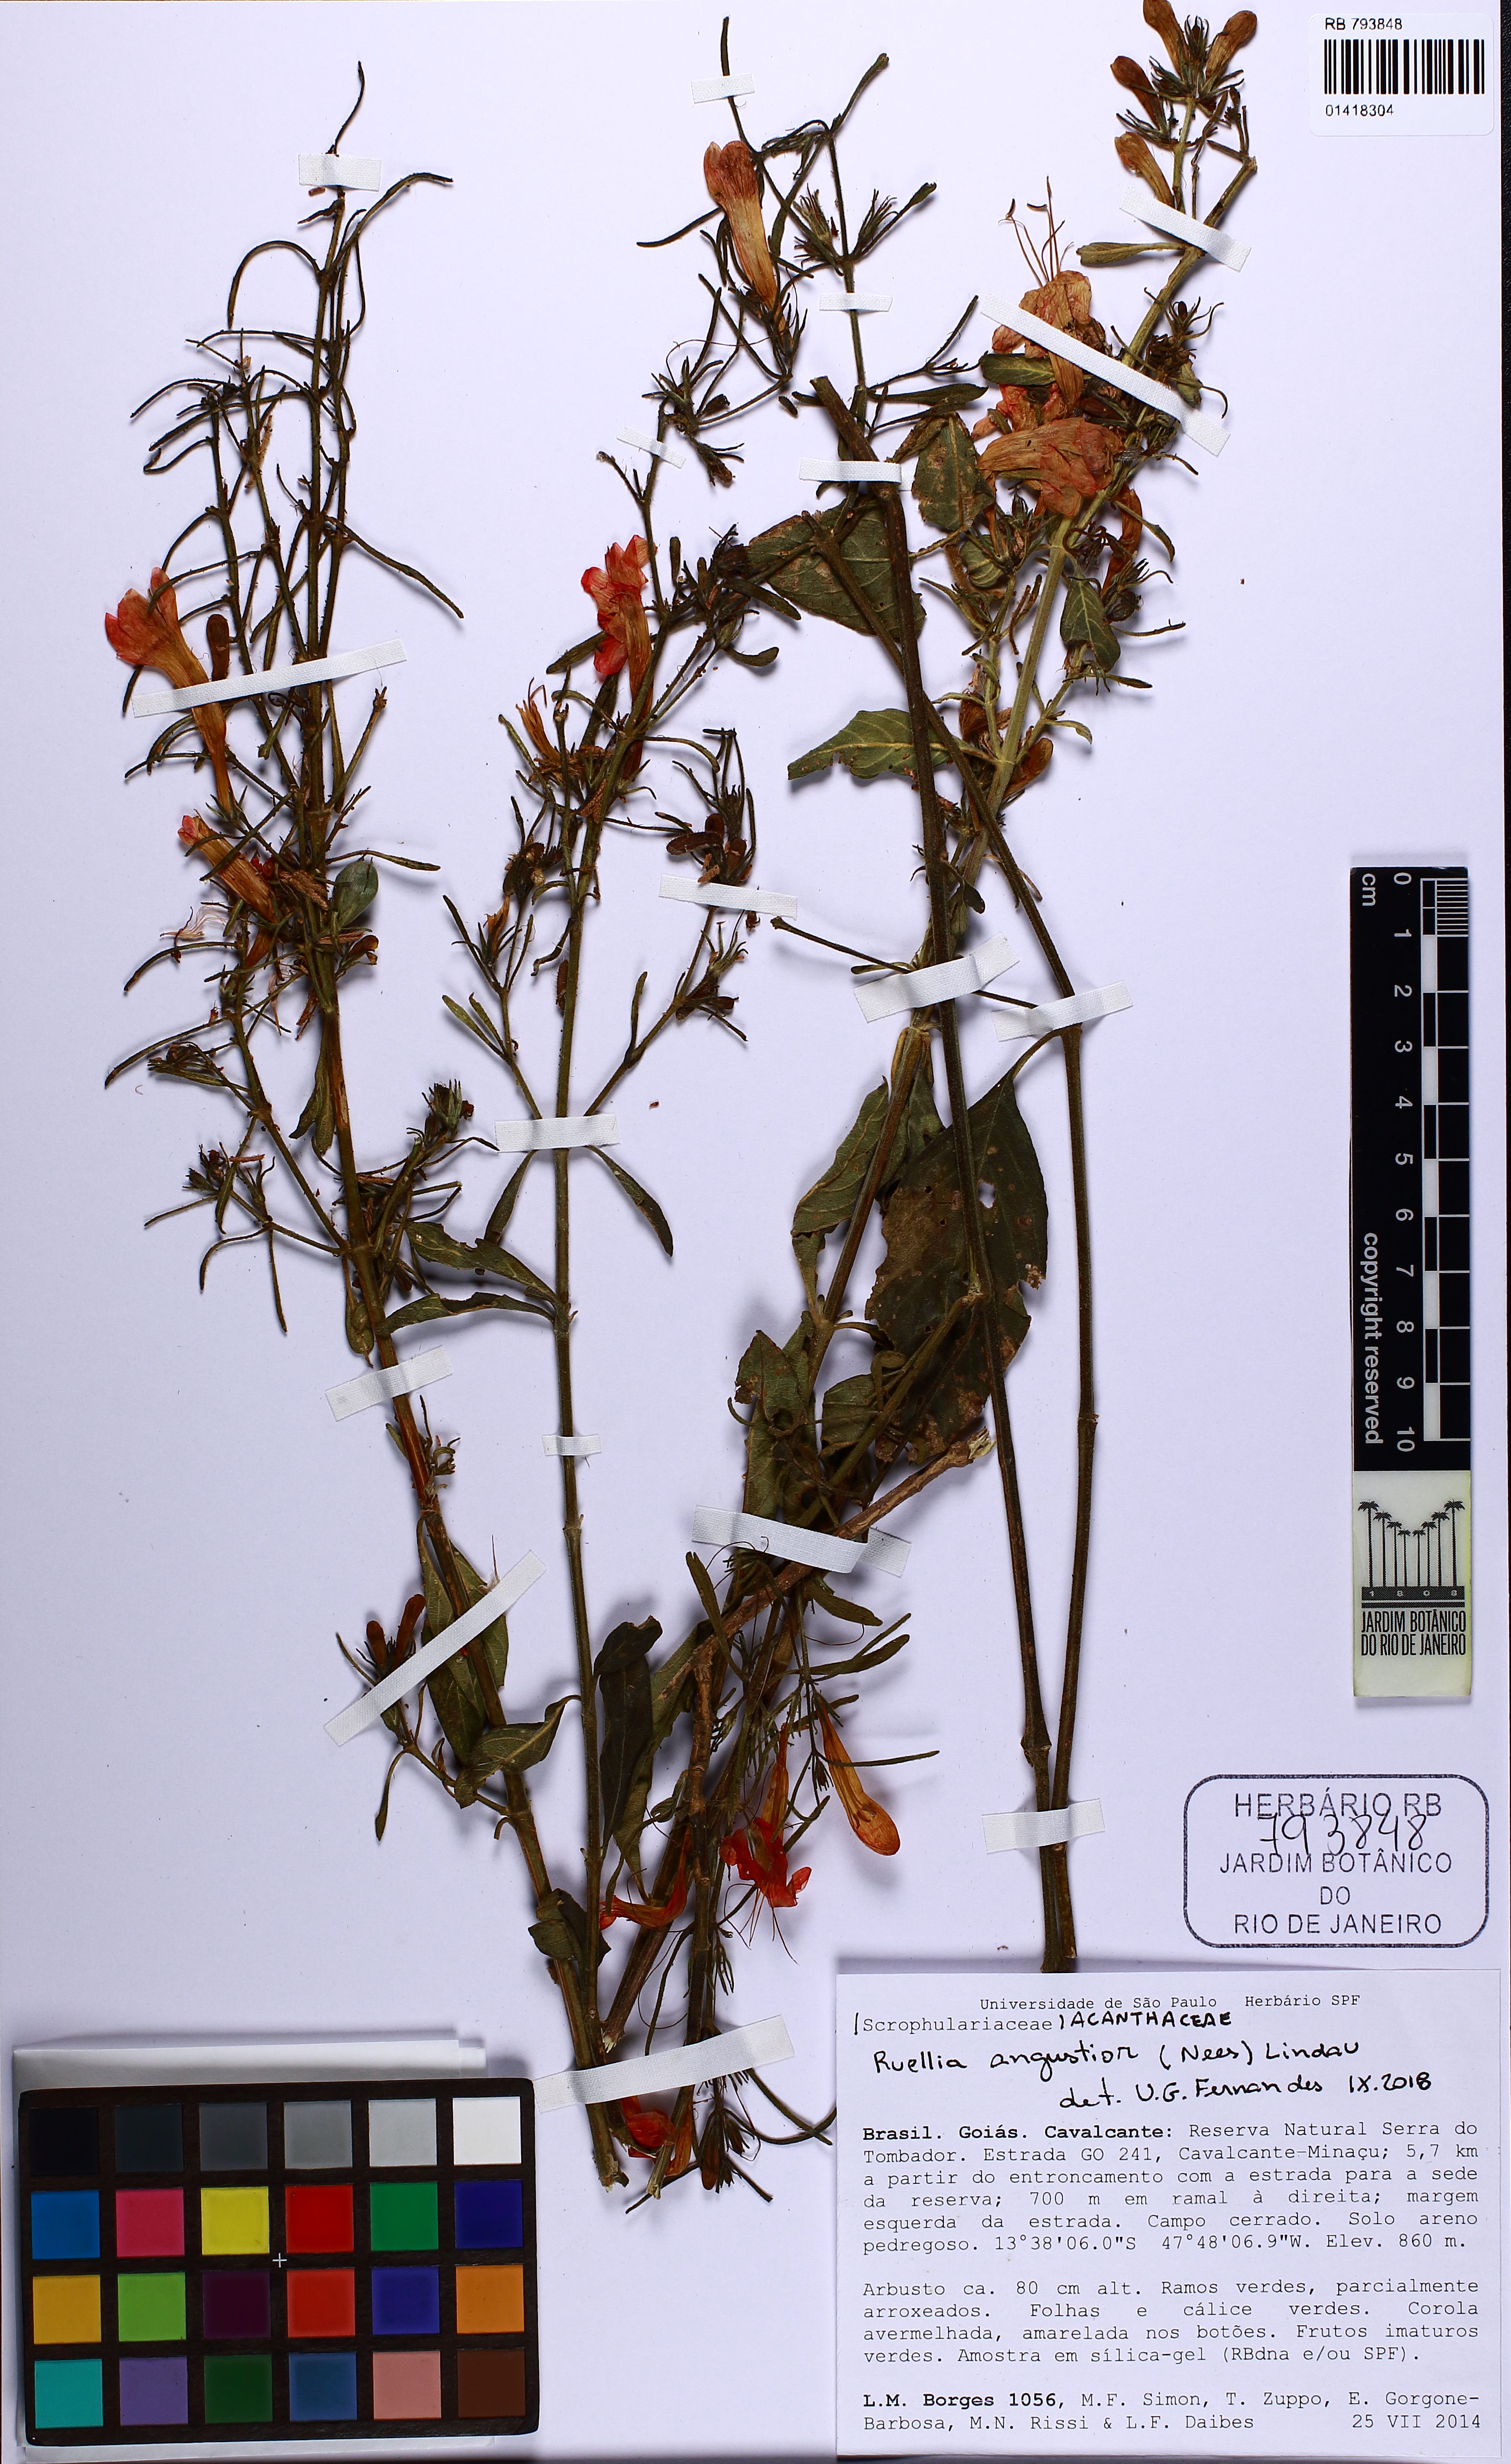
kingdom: Plantae
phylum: Tracheophyta
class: Magnoliopsida
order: Lamiales
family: Acanthaceae
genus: Ruellia
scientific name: Ruellia angustior
